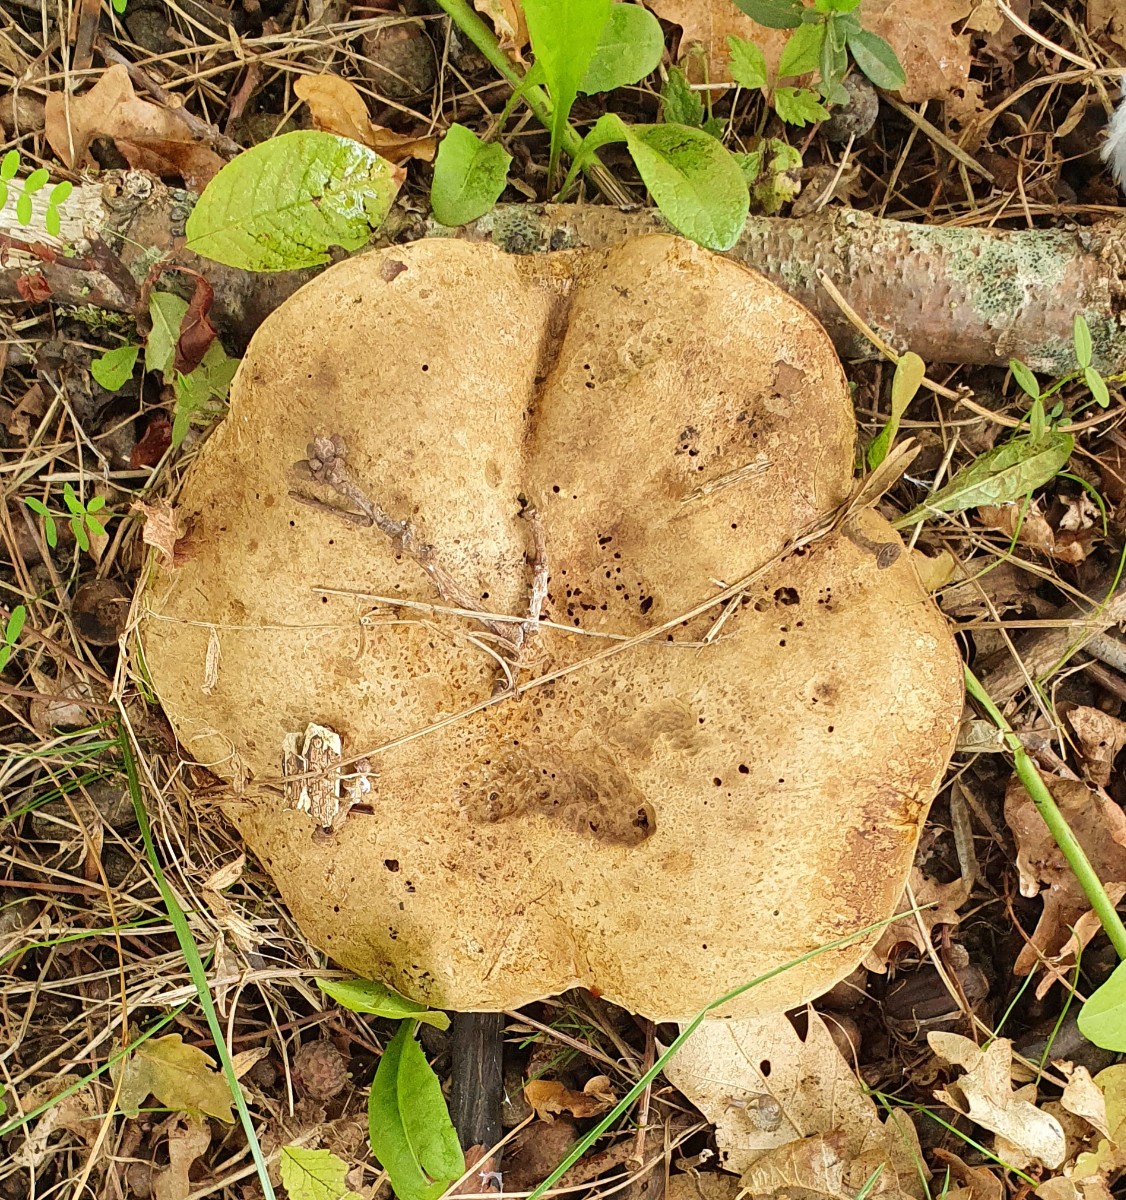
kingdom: Fungi
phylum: Basidiomycota
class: Agaricomycetes
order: Boletales
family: Boletaceae
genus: Caloboletus
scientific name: Caloboletus radicans
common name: rod-rørhat
